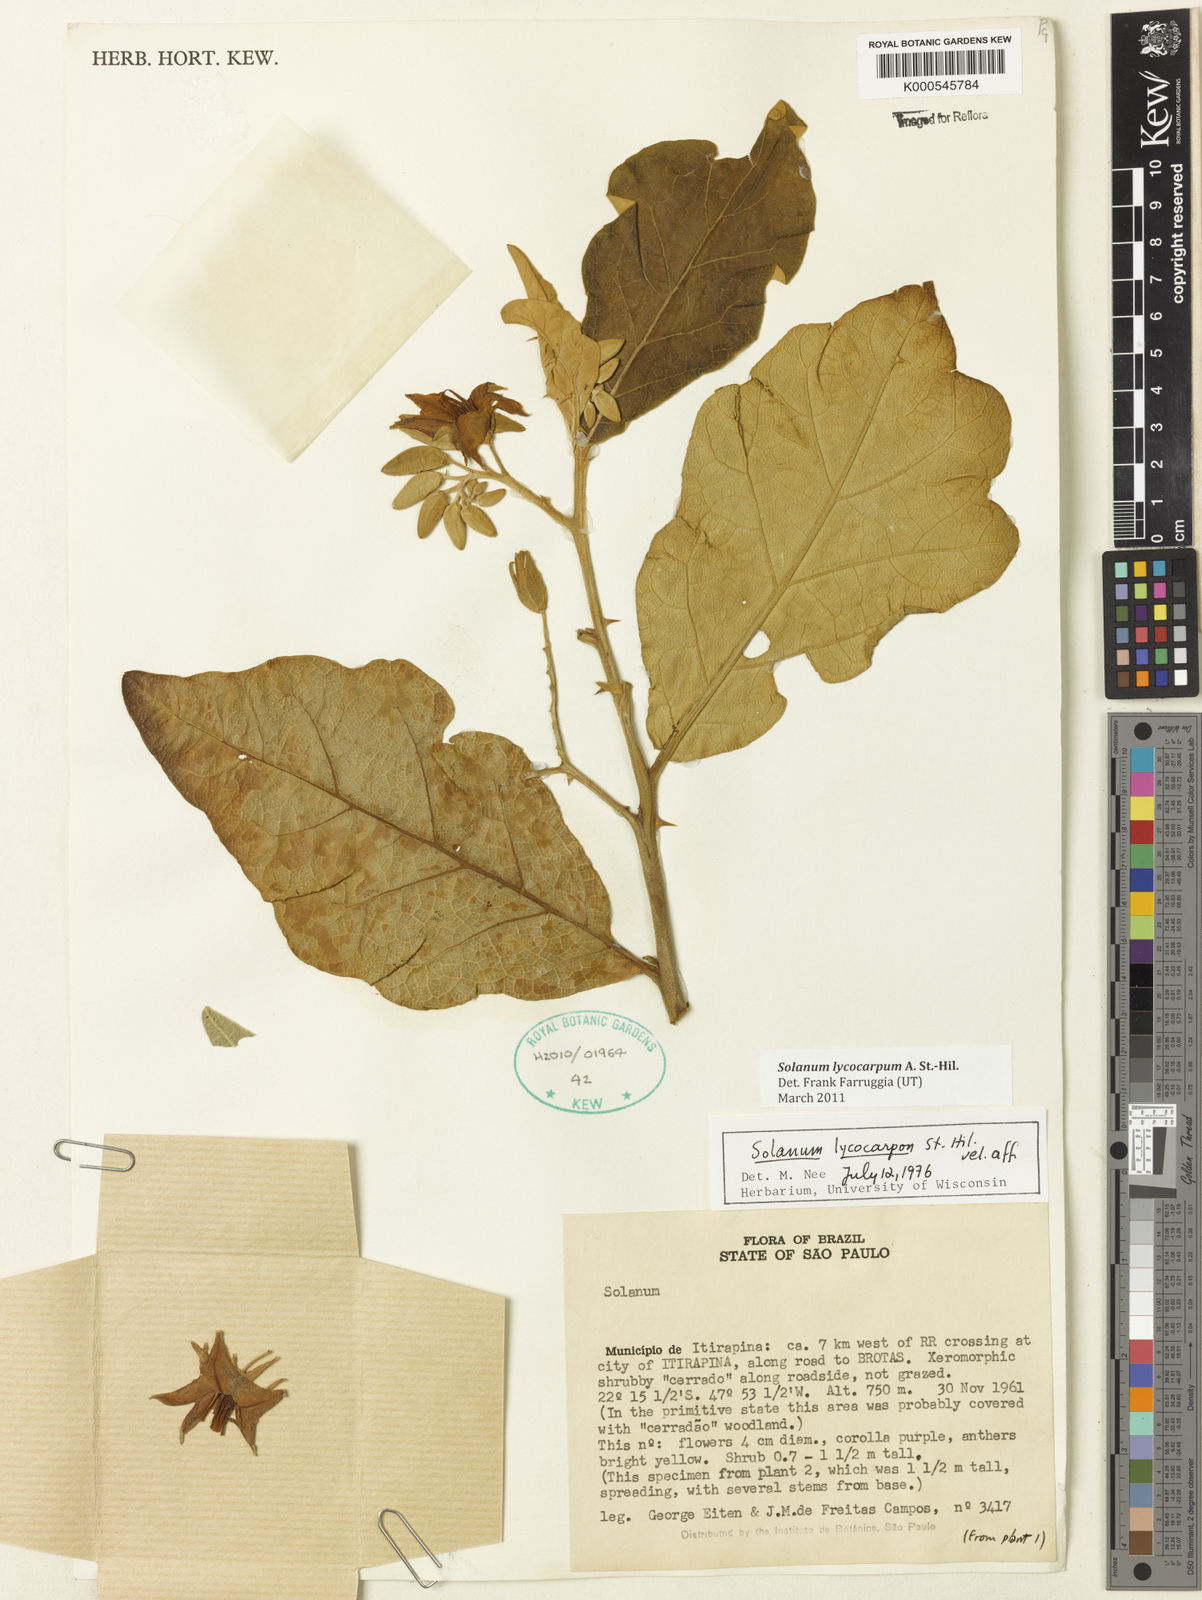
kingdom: Plantae
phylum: Tracheophyta
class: Magnoliopsida
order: Solanales
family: Solanaceae
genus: Solanum
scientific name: Solanum lycocarpum
